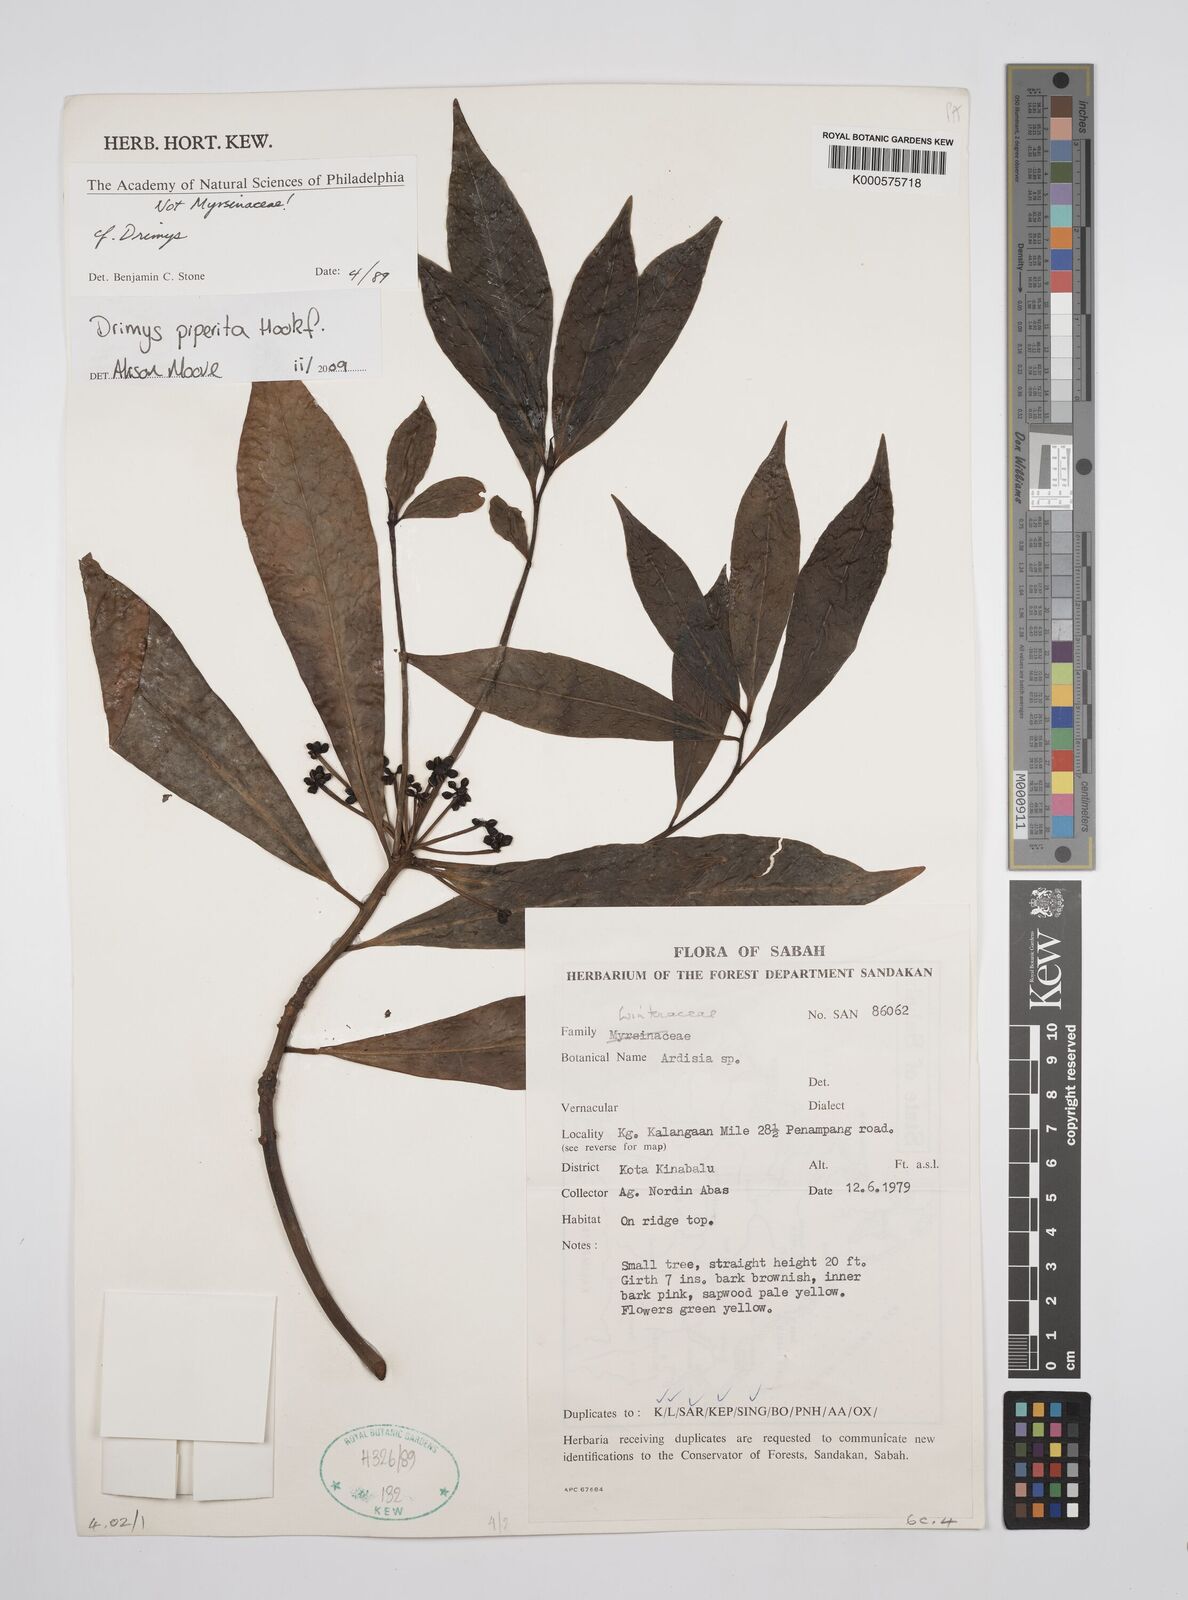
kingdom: Plantae
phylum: Tracheophyta
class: Magnoliopsida
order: Canellales
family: Winteraceae
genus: Drimys
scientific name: Drimys piperita
